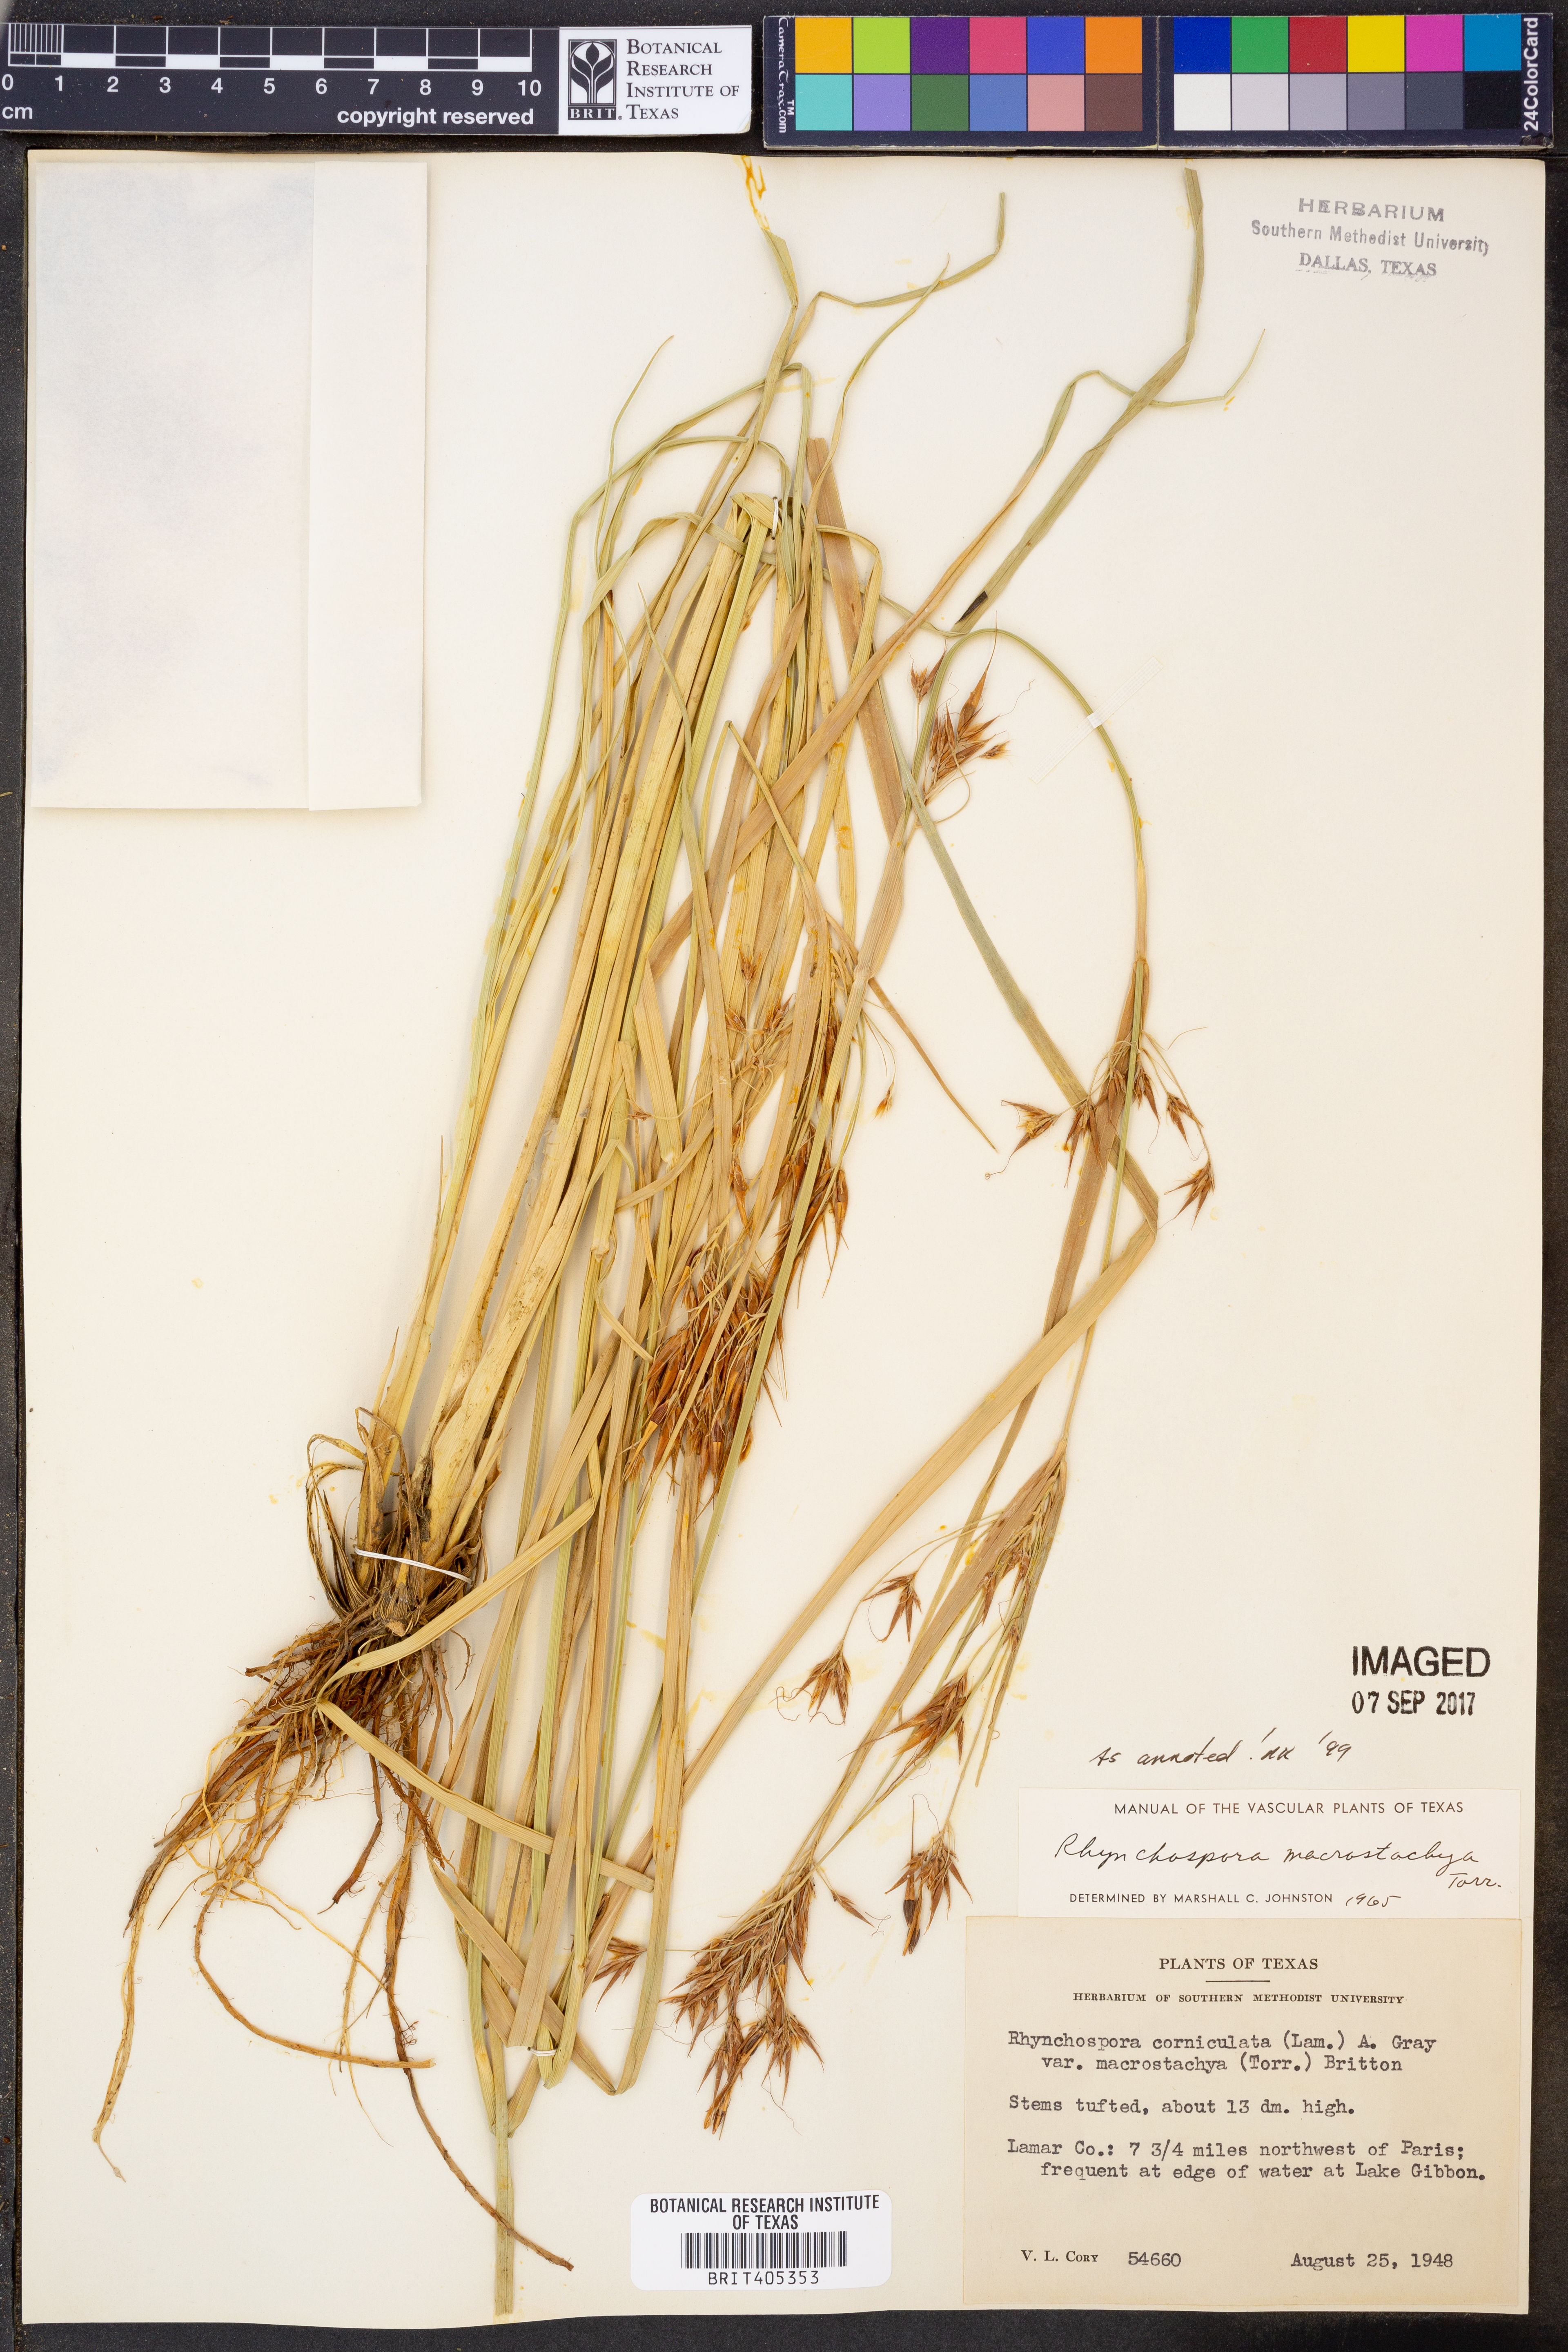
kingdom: Plantae
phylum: Tracheophyta
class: Liliopsida
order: Poales
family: Cyperaceae
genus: Rhynchospora
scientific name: Rhynchospora macrostachya
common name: Tall beakrush
